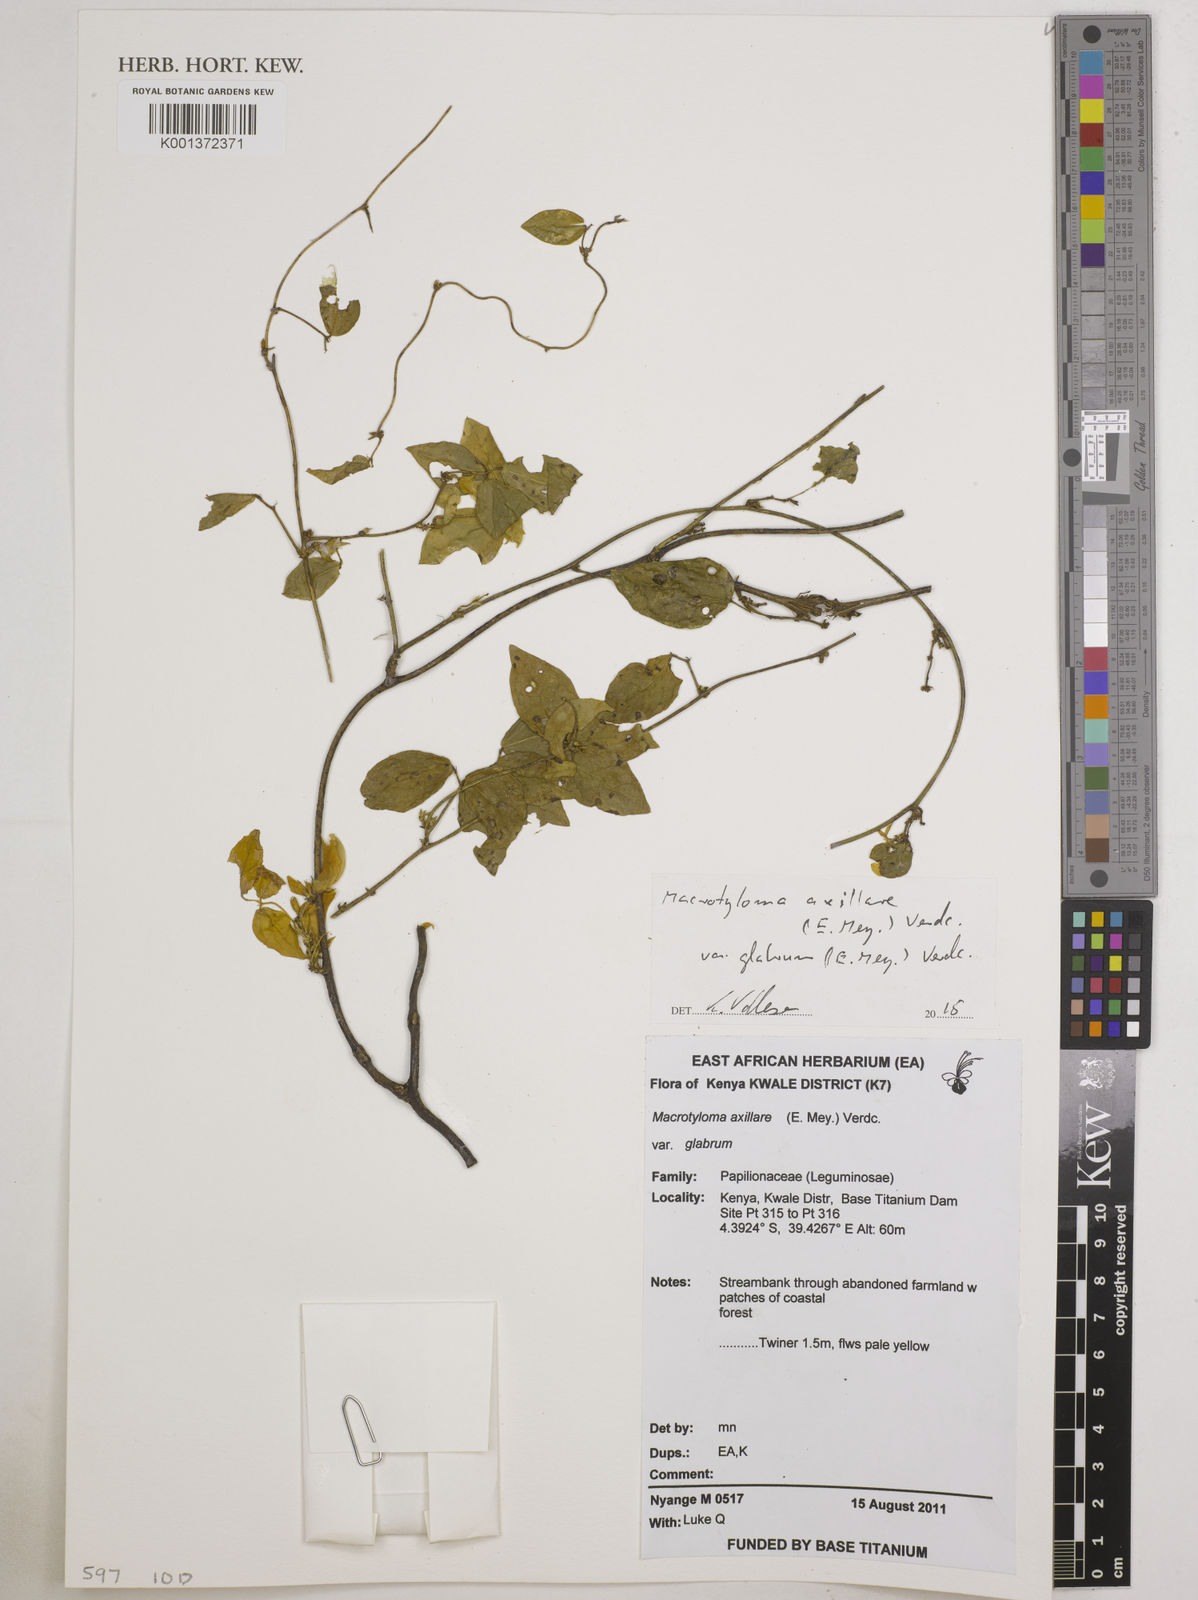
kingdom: Plantae
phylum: Tracheophyta
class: Magnoliopsida
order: Fabales
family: Fabaceae
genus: Macrotyloma
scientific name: Macrotyloma axillare
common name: Perennial horsegram
